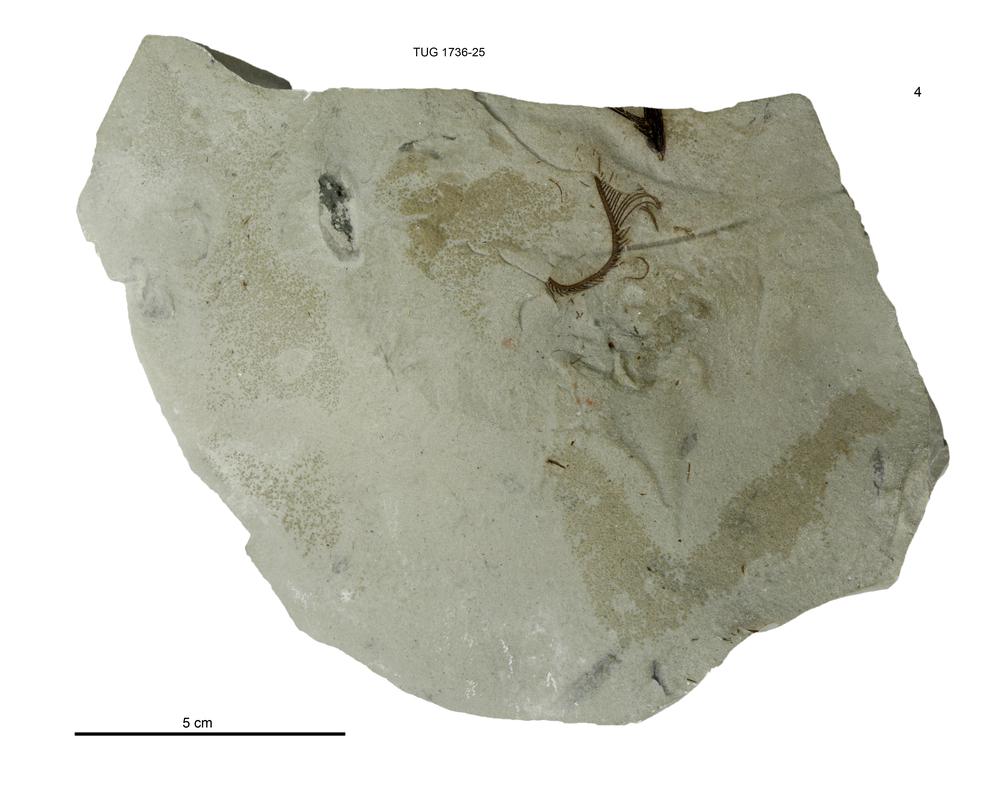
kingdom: Animalia
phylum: Echinodermata
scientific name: Echinodermata
